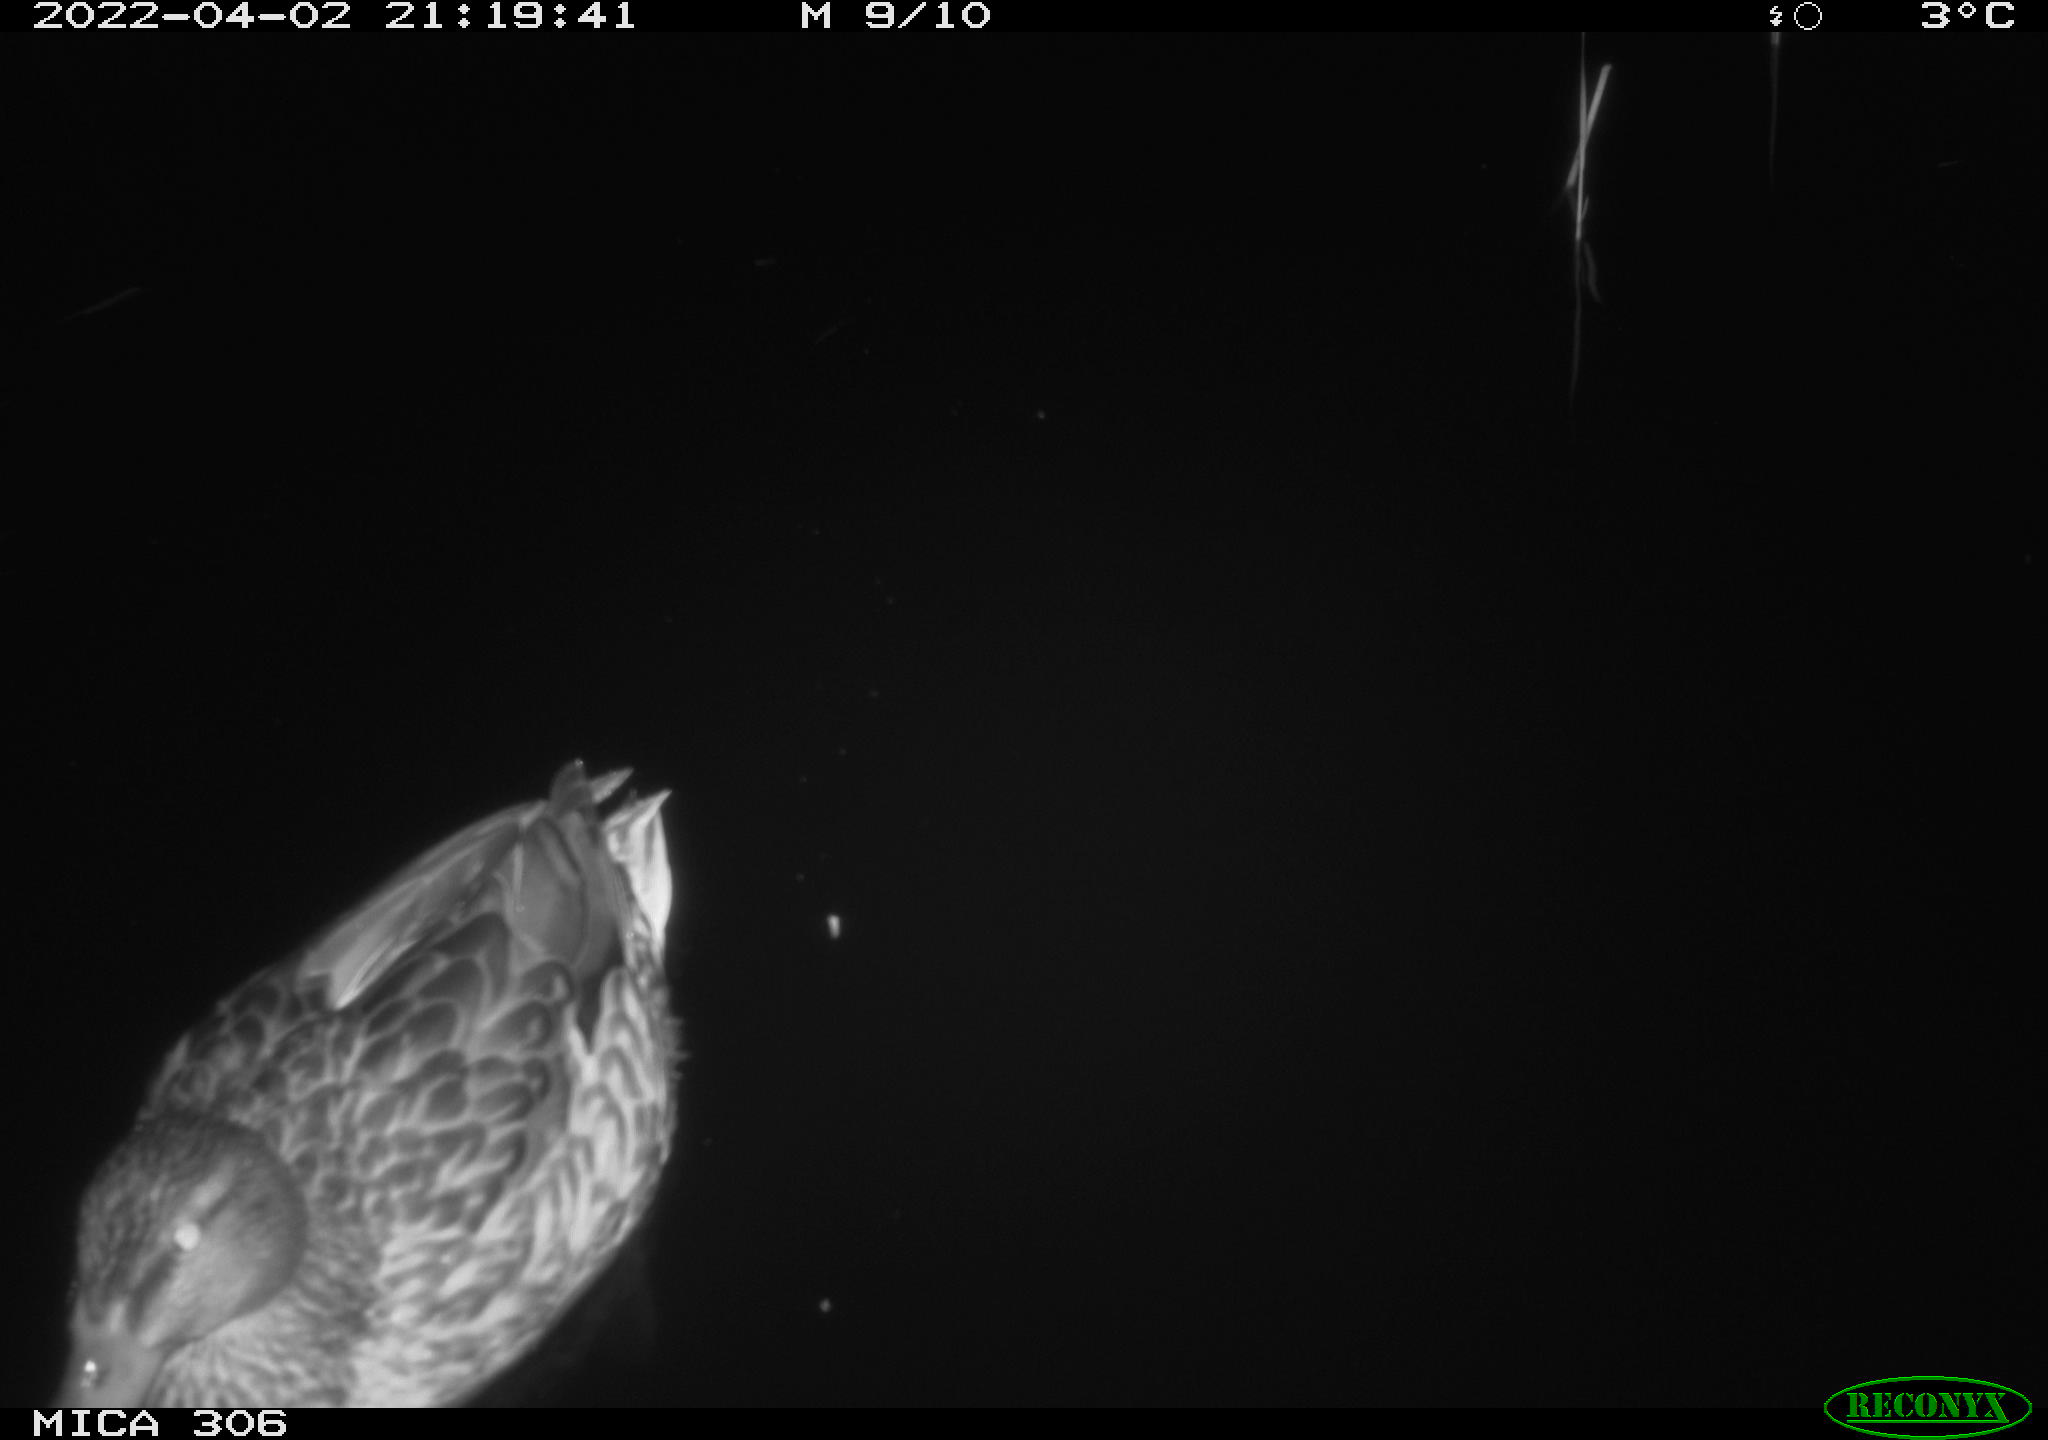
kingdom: Animalia
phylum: Chordata
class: Aves
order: Anseriformes
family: Anatidae
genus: Anas
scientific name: Anas
